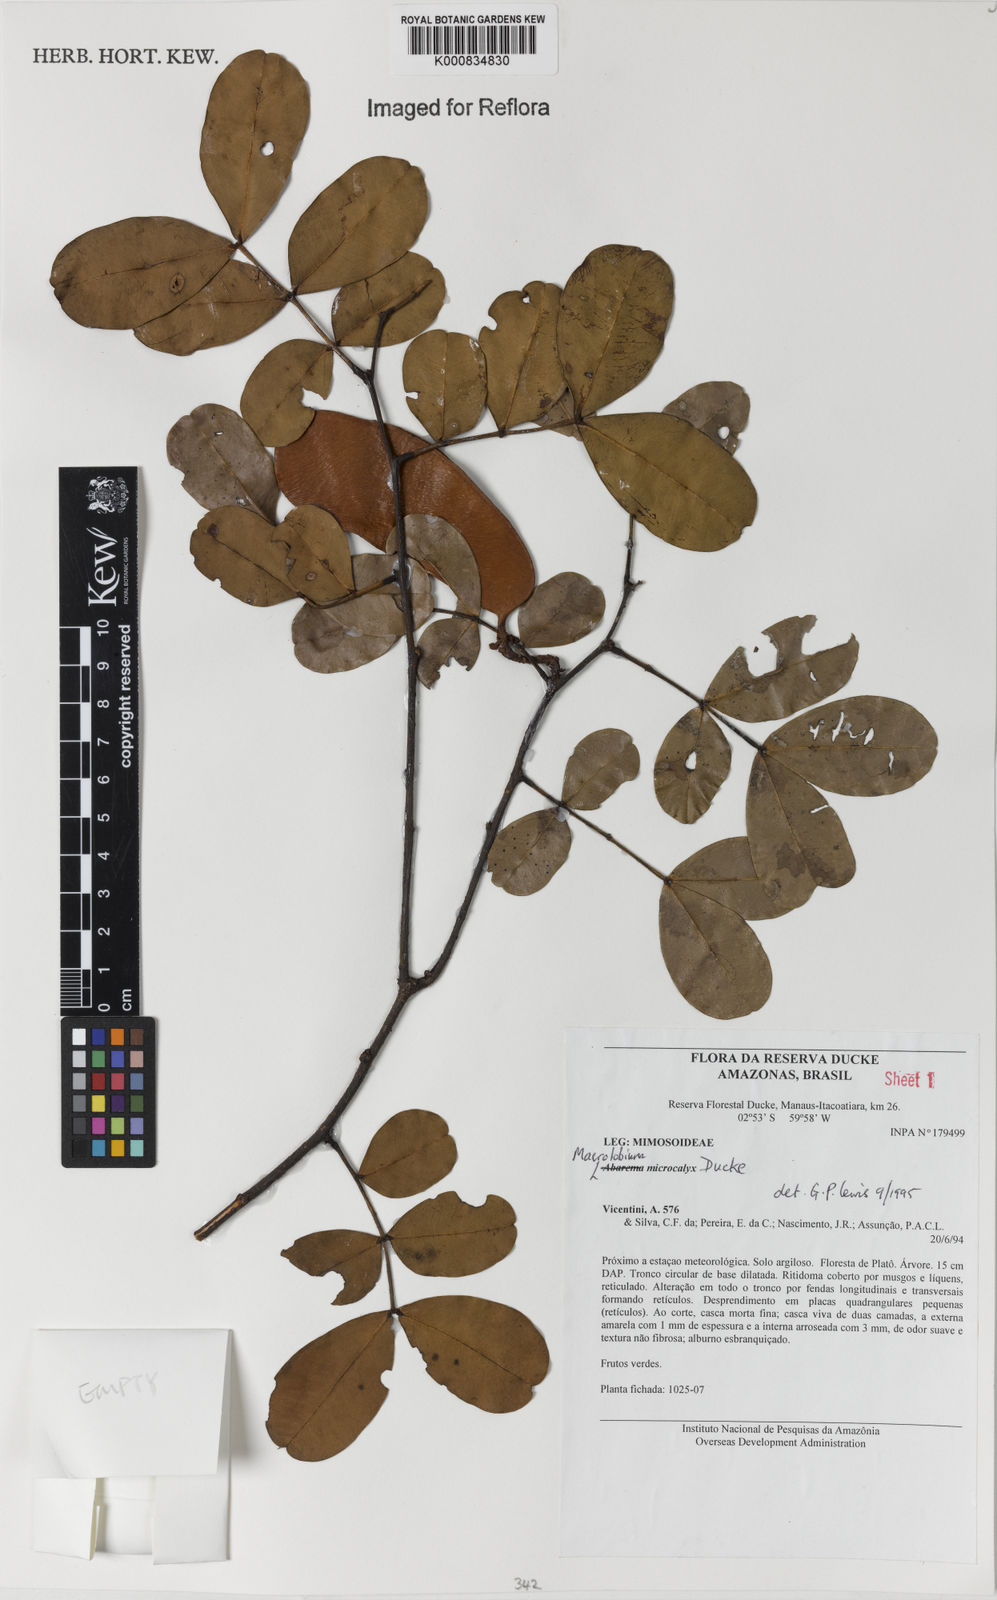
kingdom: Plantae
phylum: Tracheophyta
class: Magnoliopsida
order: Fabales
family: Fabaceae
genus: Macrolobium
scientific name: Macrolobium microcalyx
